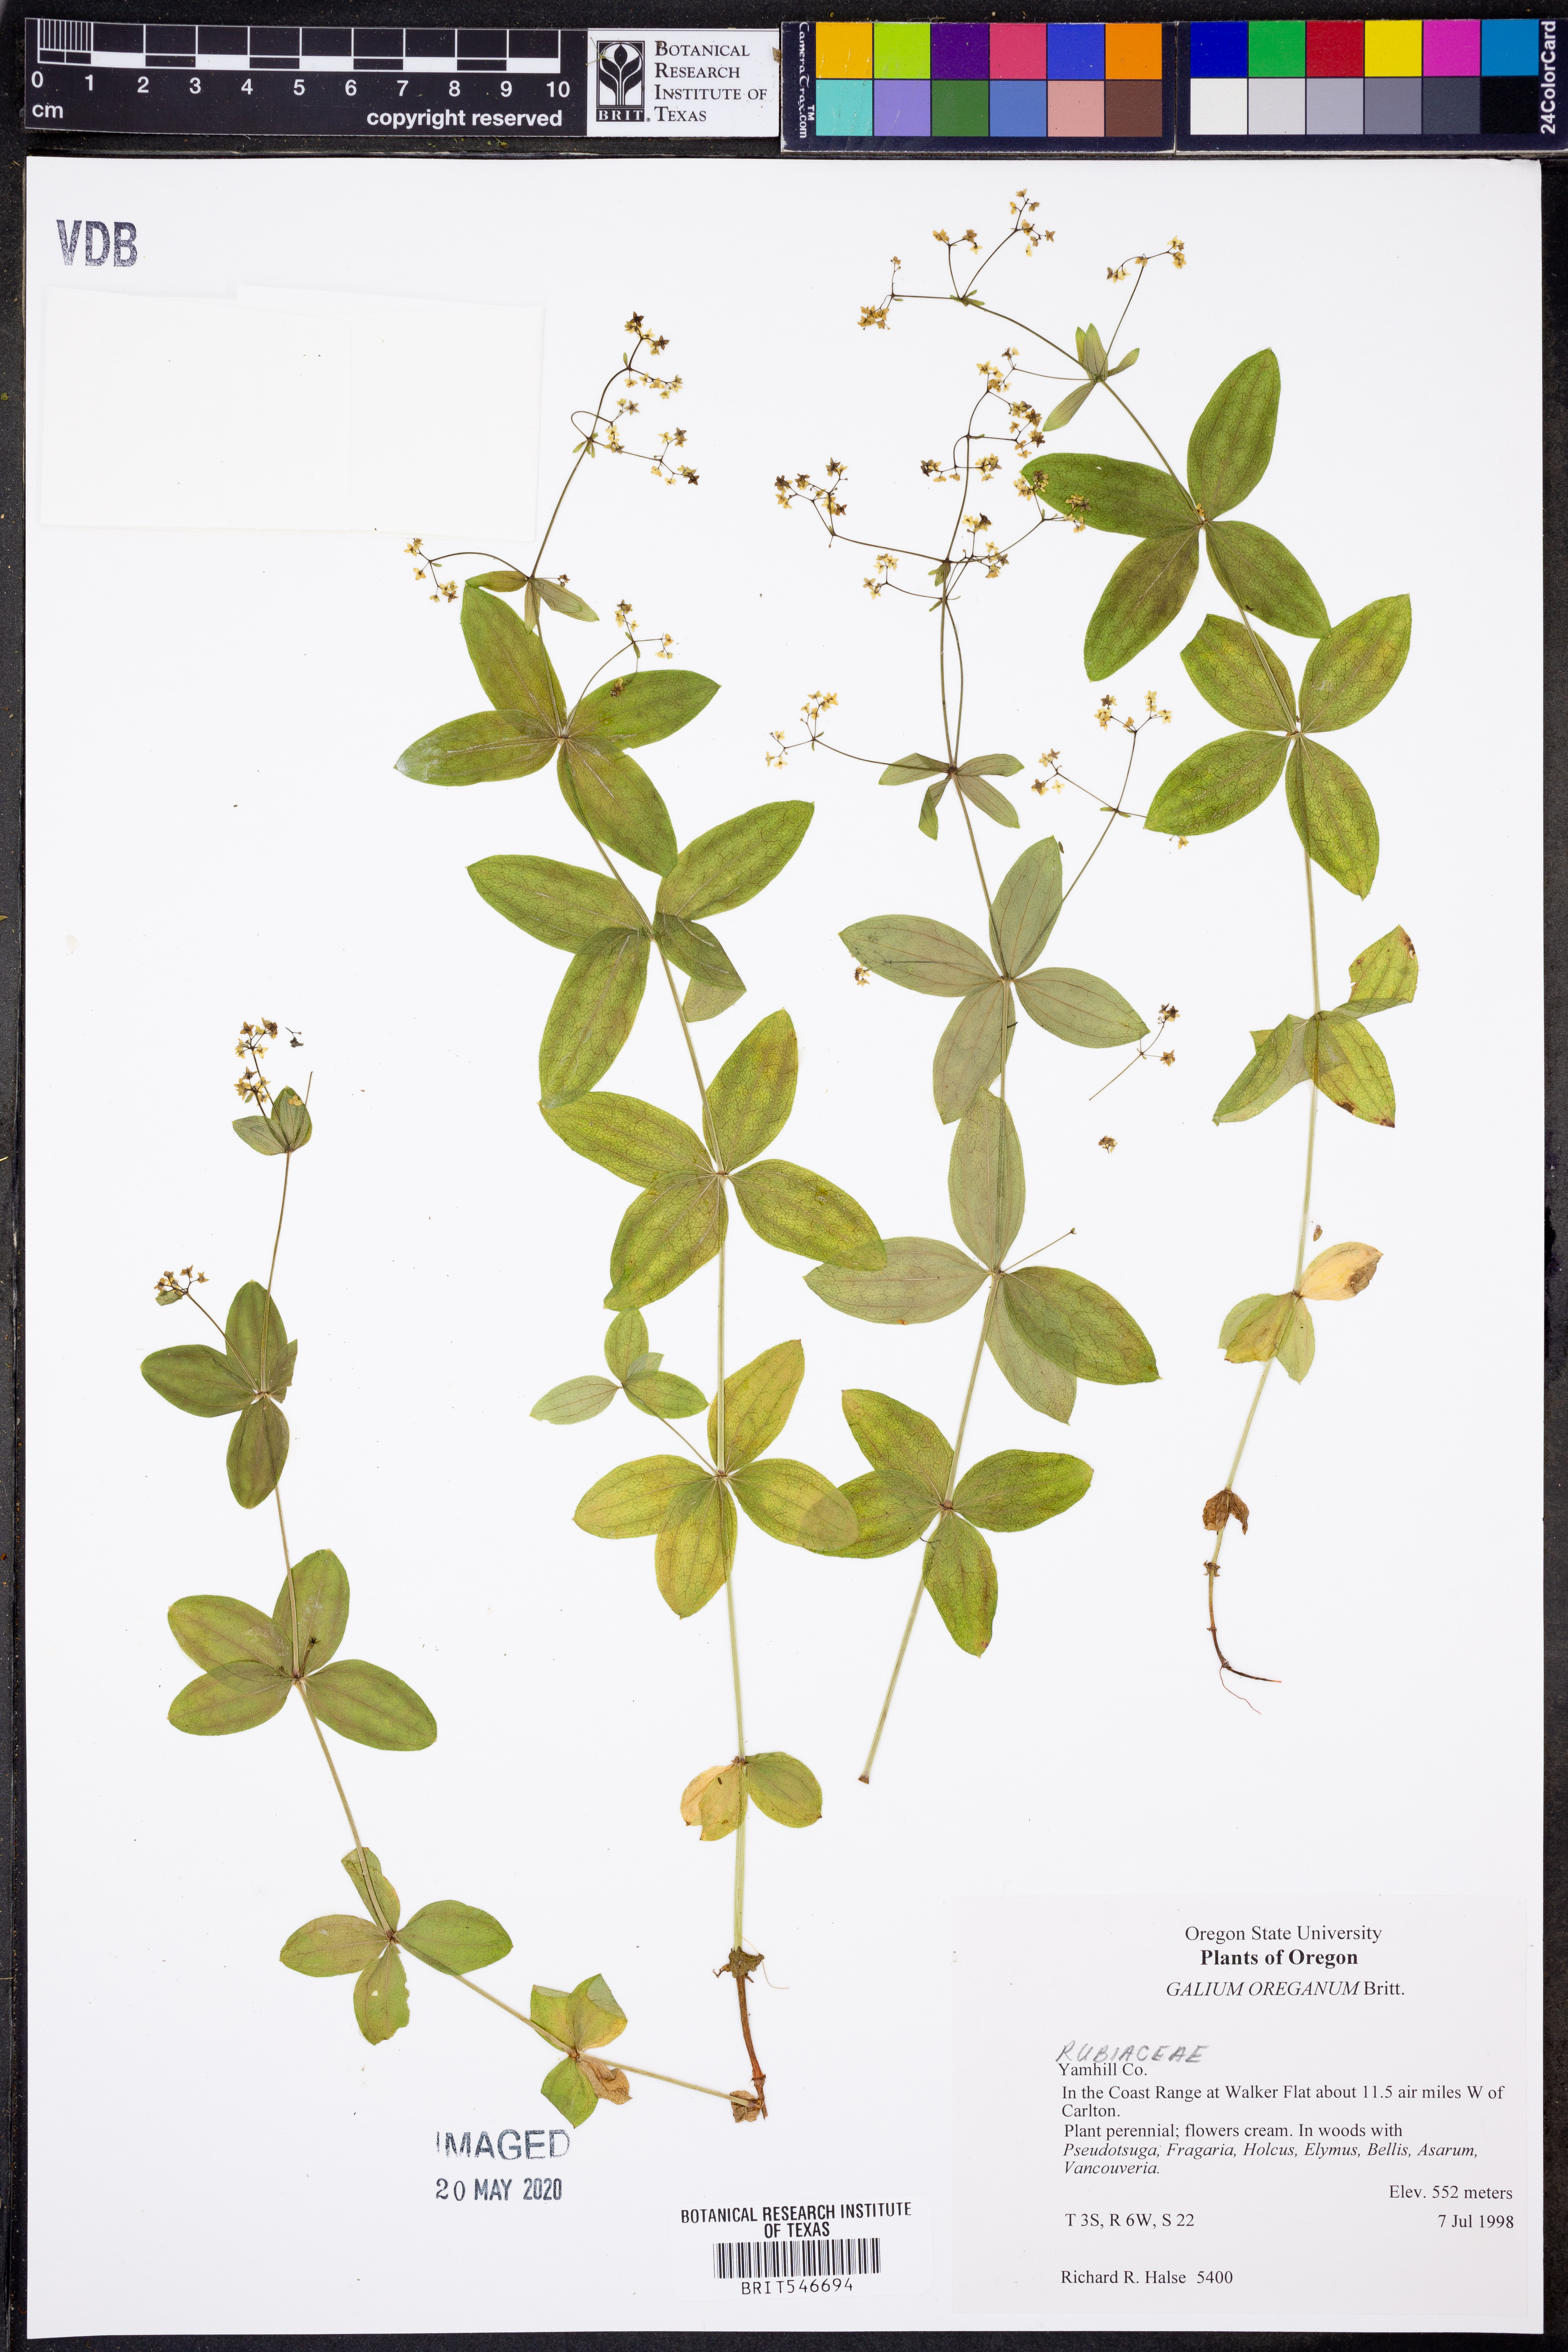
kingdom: Plantae
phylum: Tracheophyta
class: Magnoliopsida
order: Gentianales
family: Rubiaceae
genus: Galium
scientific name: Galium oreganum
